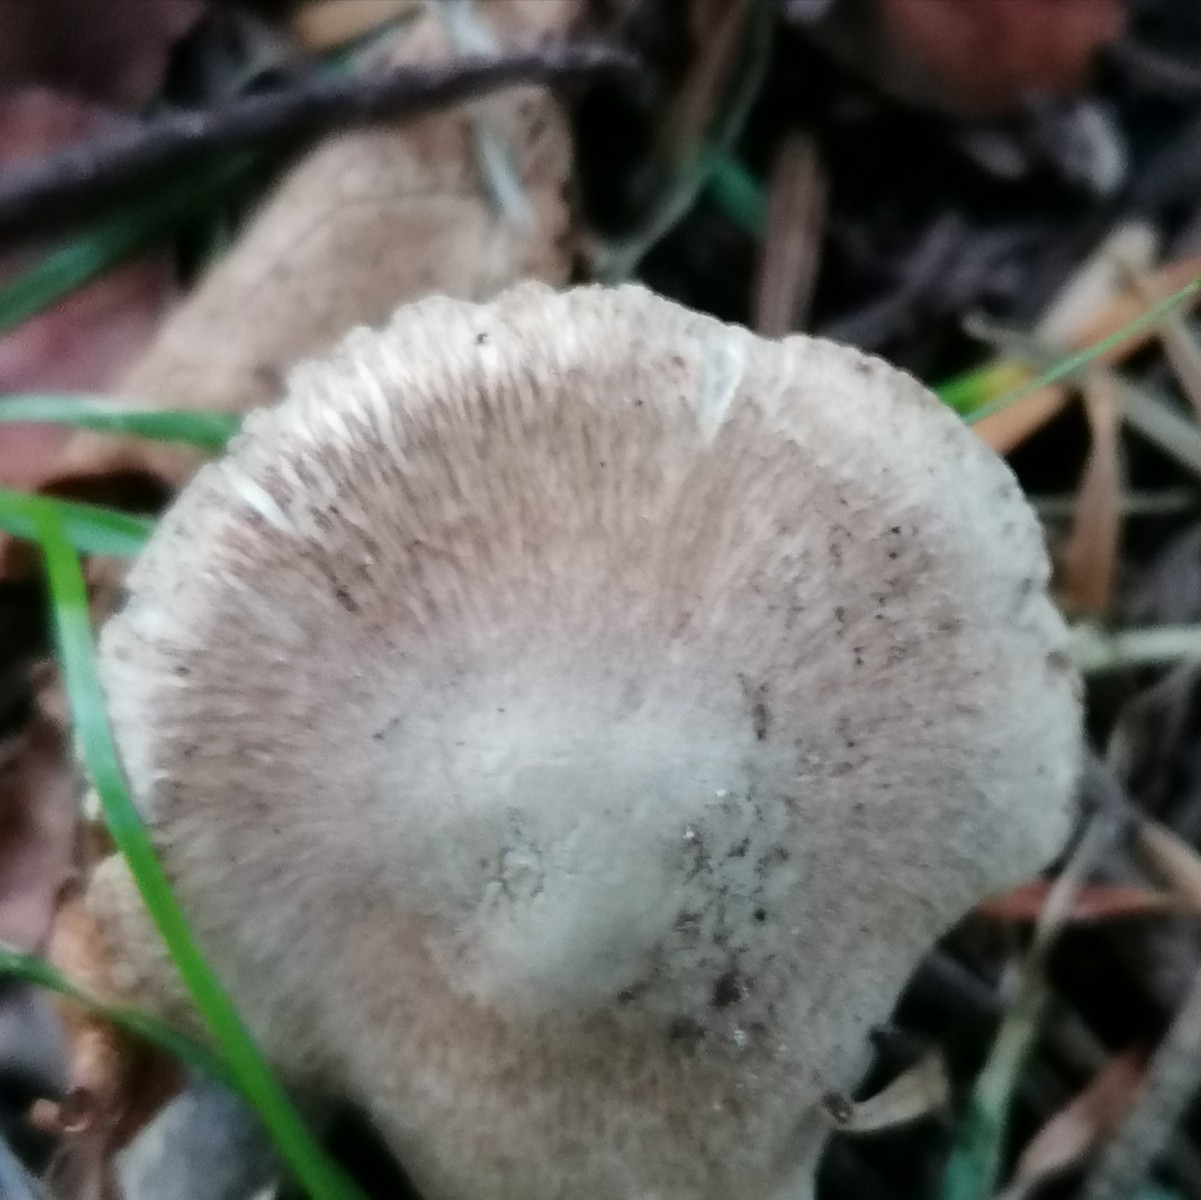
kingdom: Fungi
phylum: Basidiomycota
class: Agaricomycetes
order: Agaricales
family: Inocybaceae
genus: Inocybe
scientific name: Inocybe
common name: trævlhat
